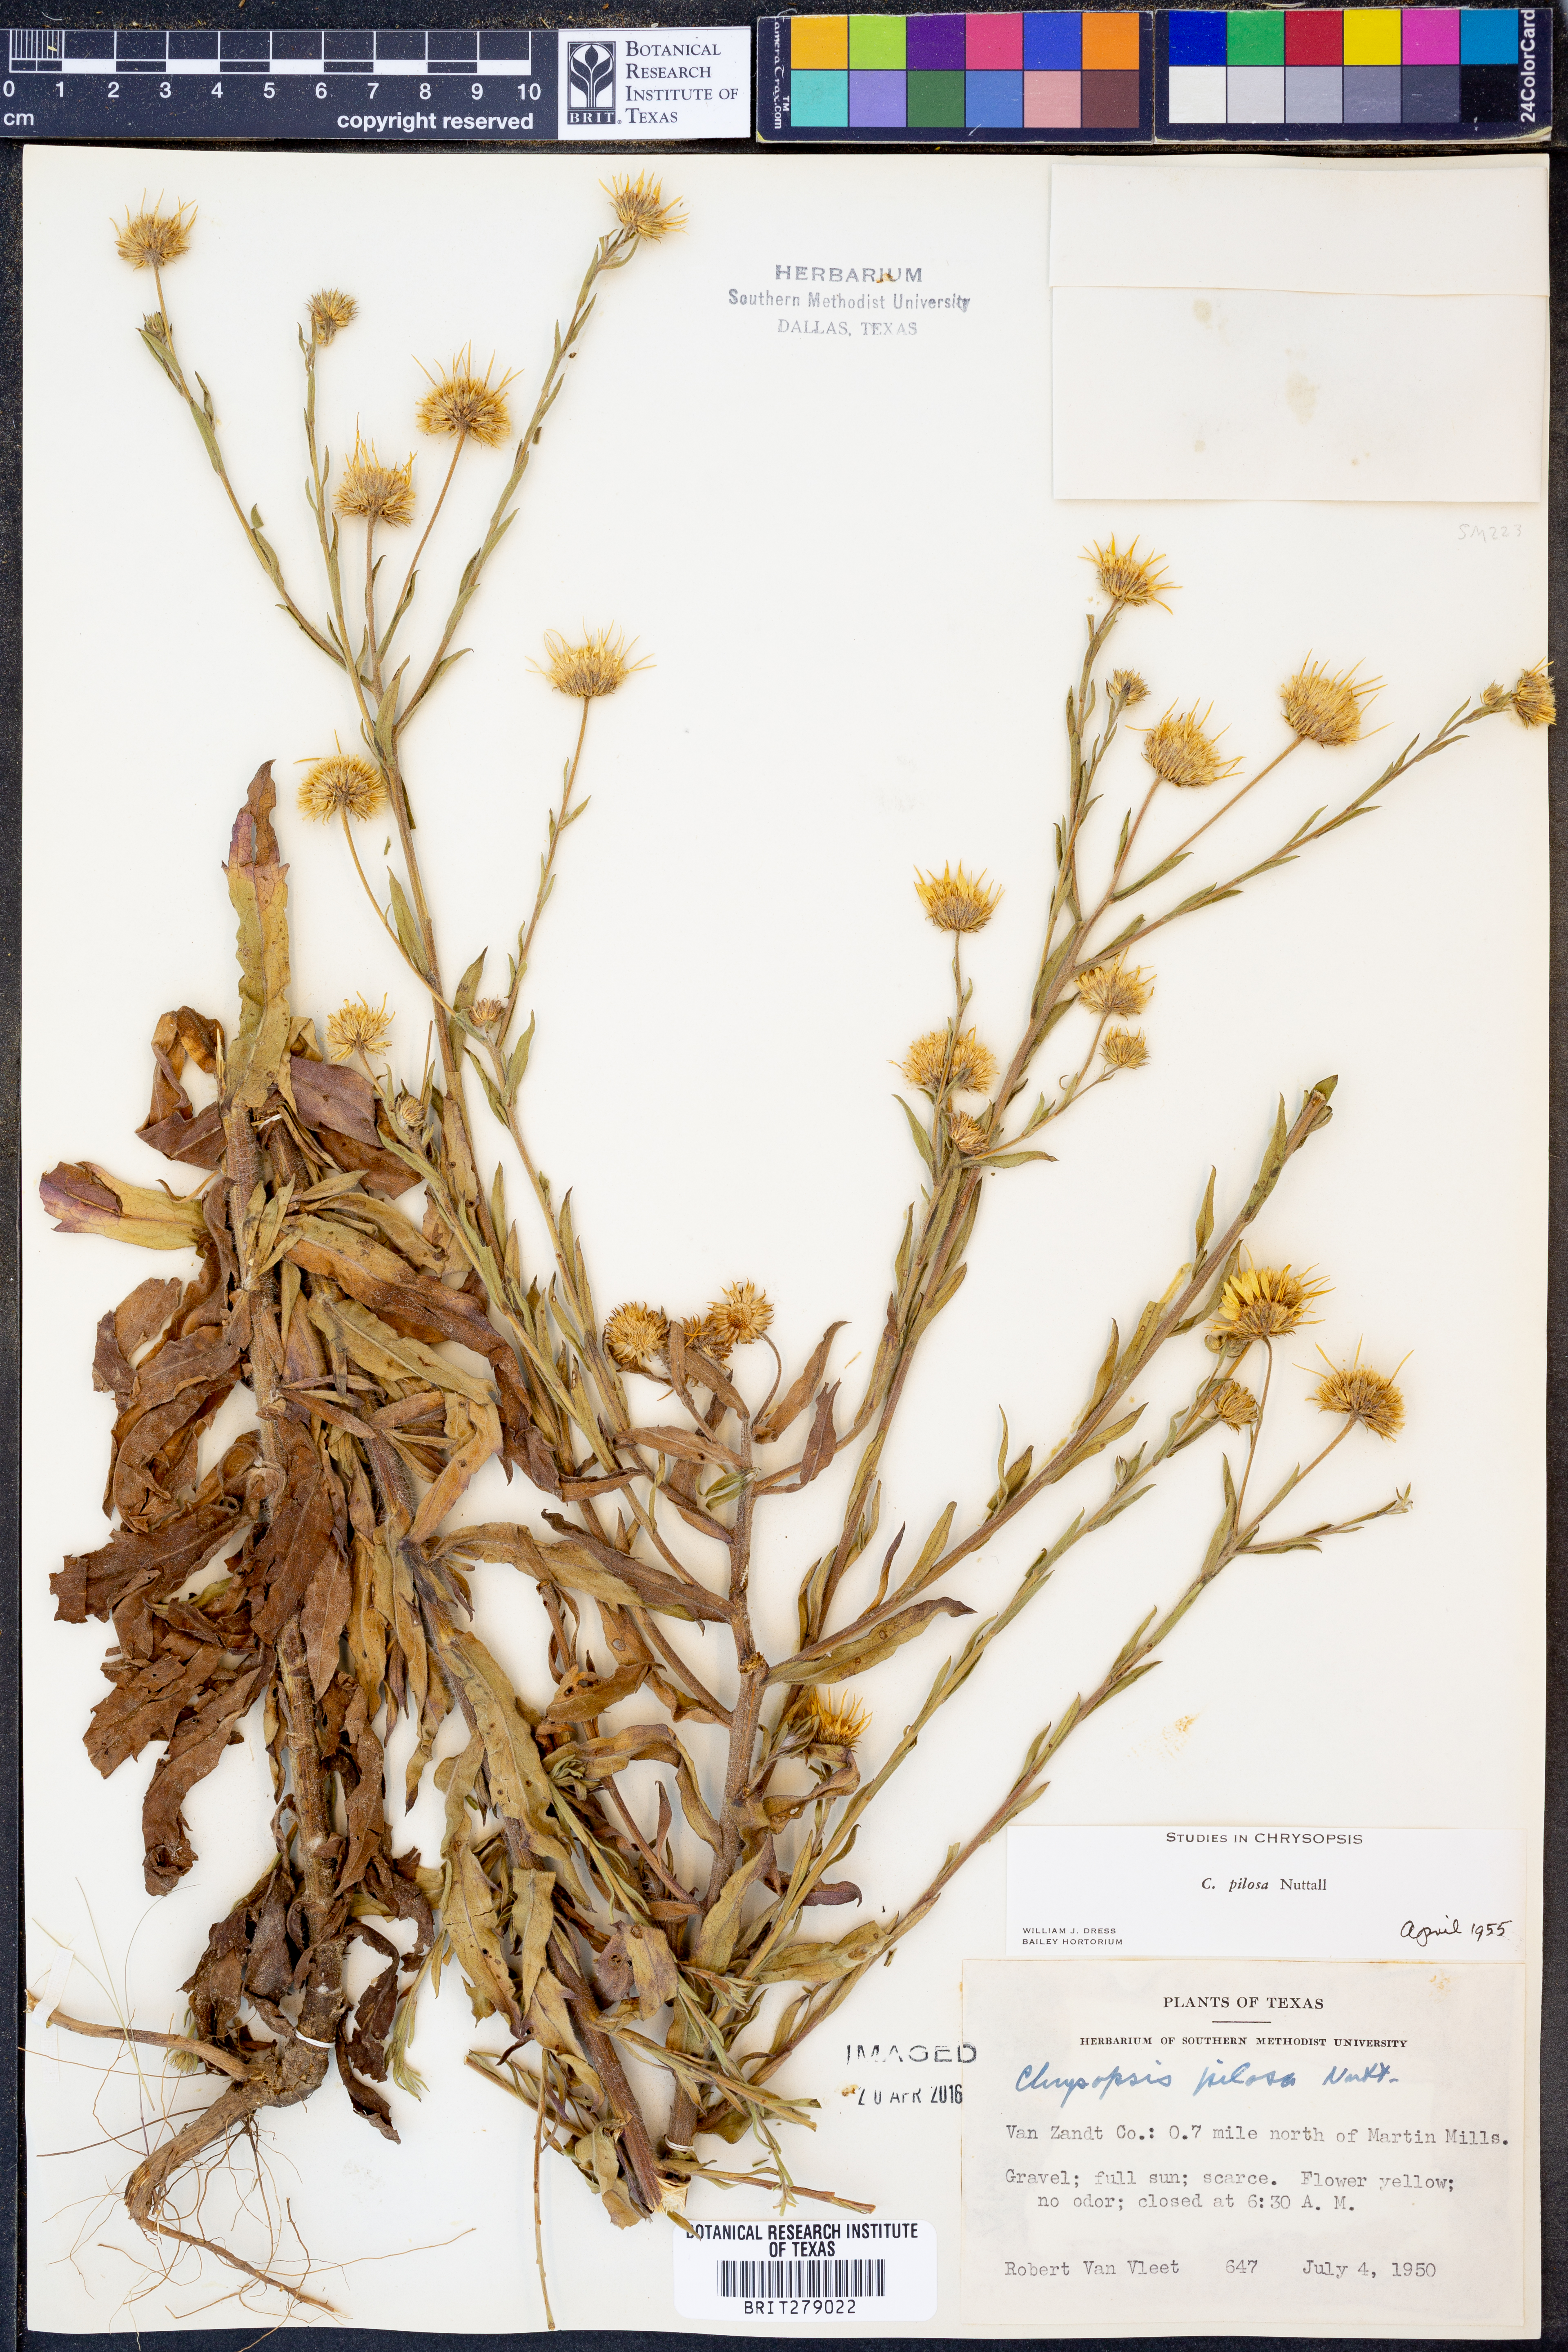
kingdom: Plantae
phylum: Tracheophyta
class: Magnoliopsida
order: Asterales
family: Asteraceae
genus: Bradburia
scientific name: Bradburia pilosa
